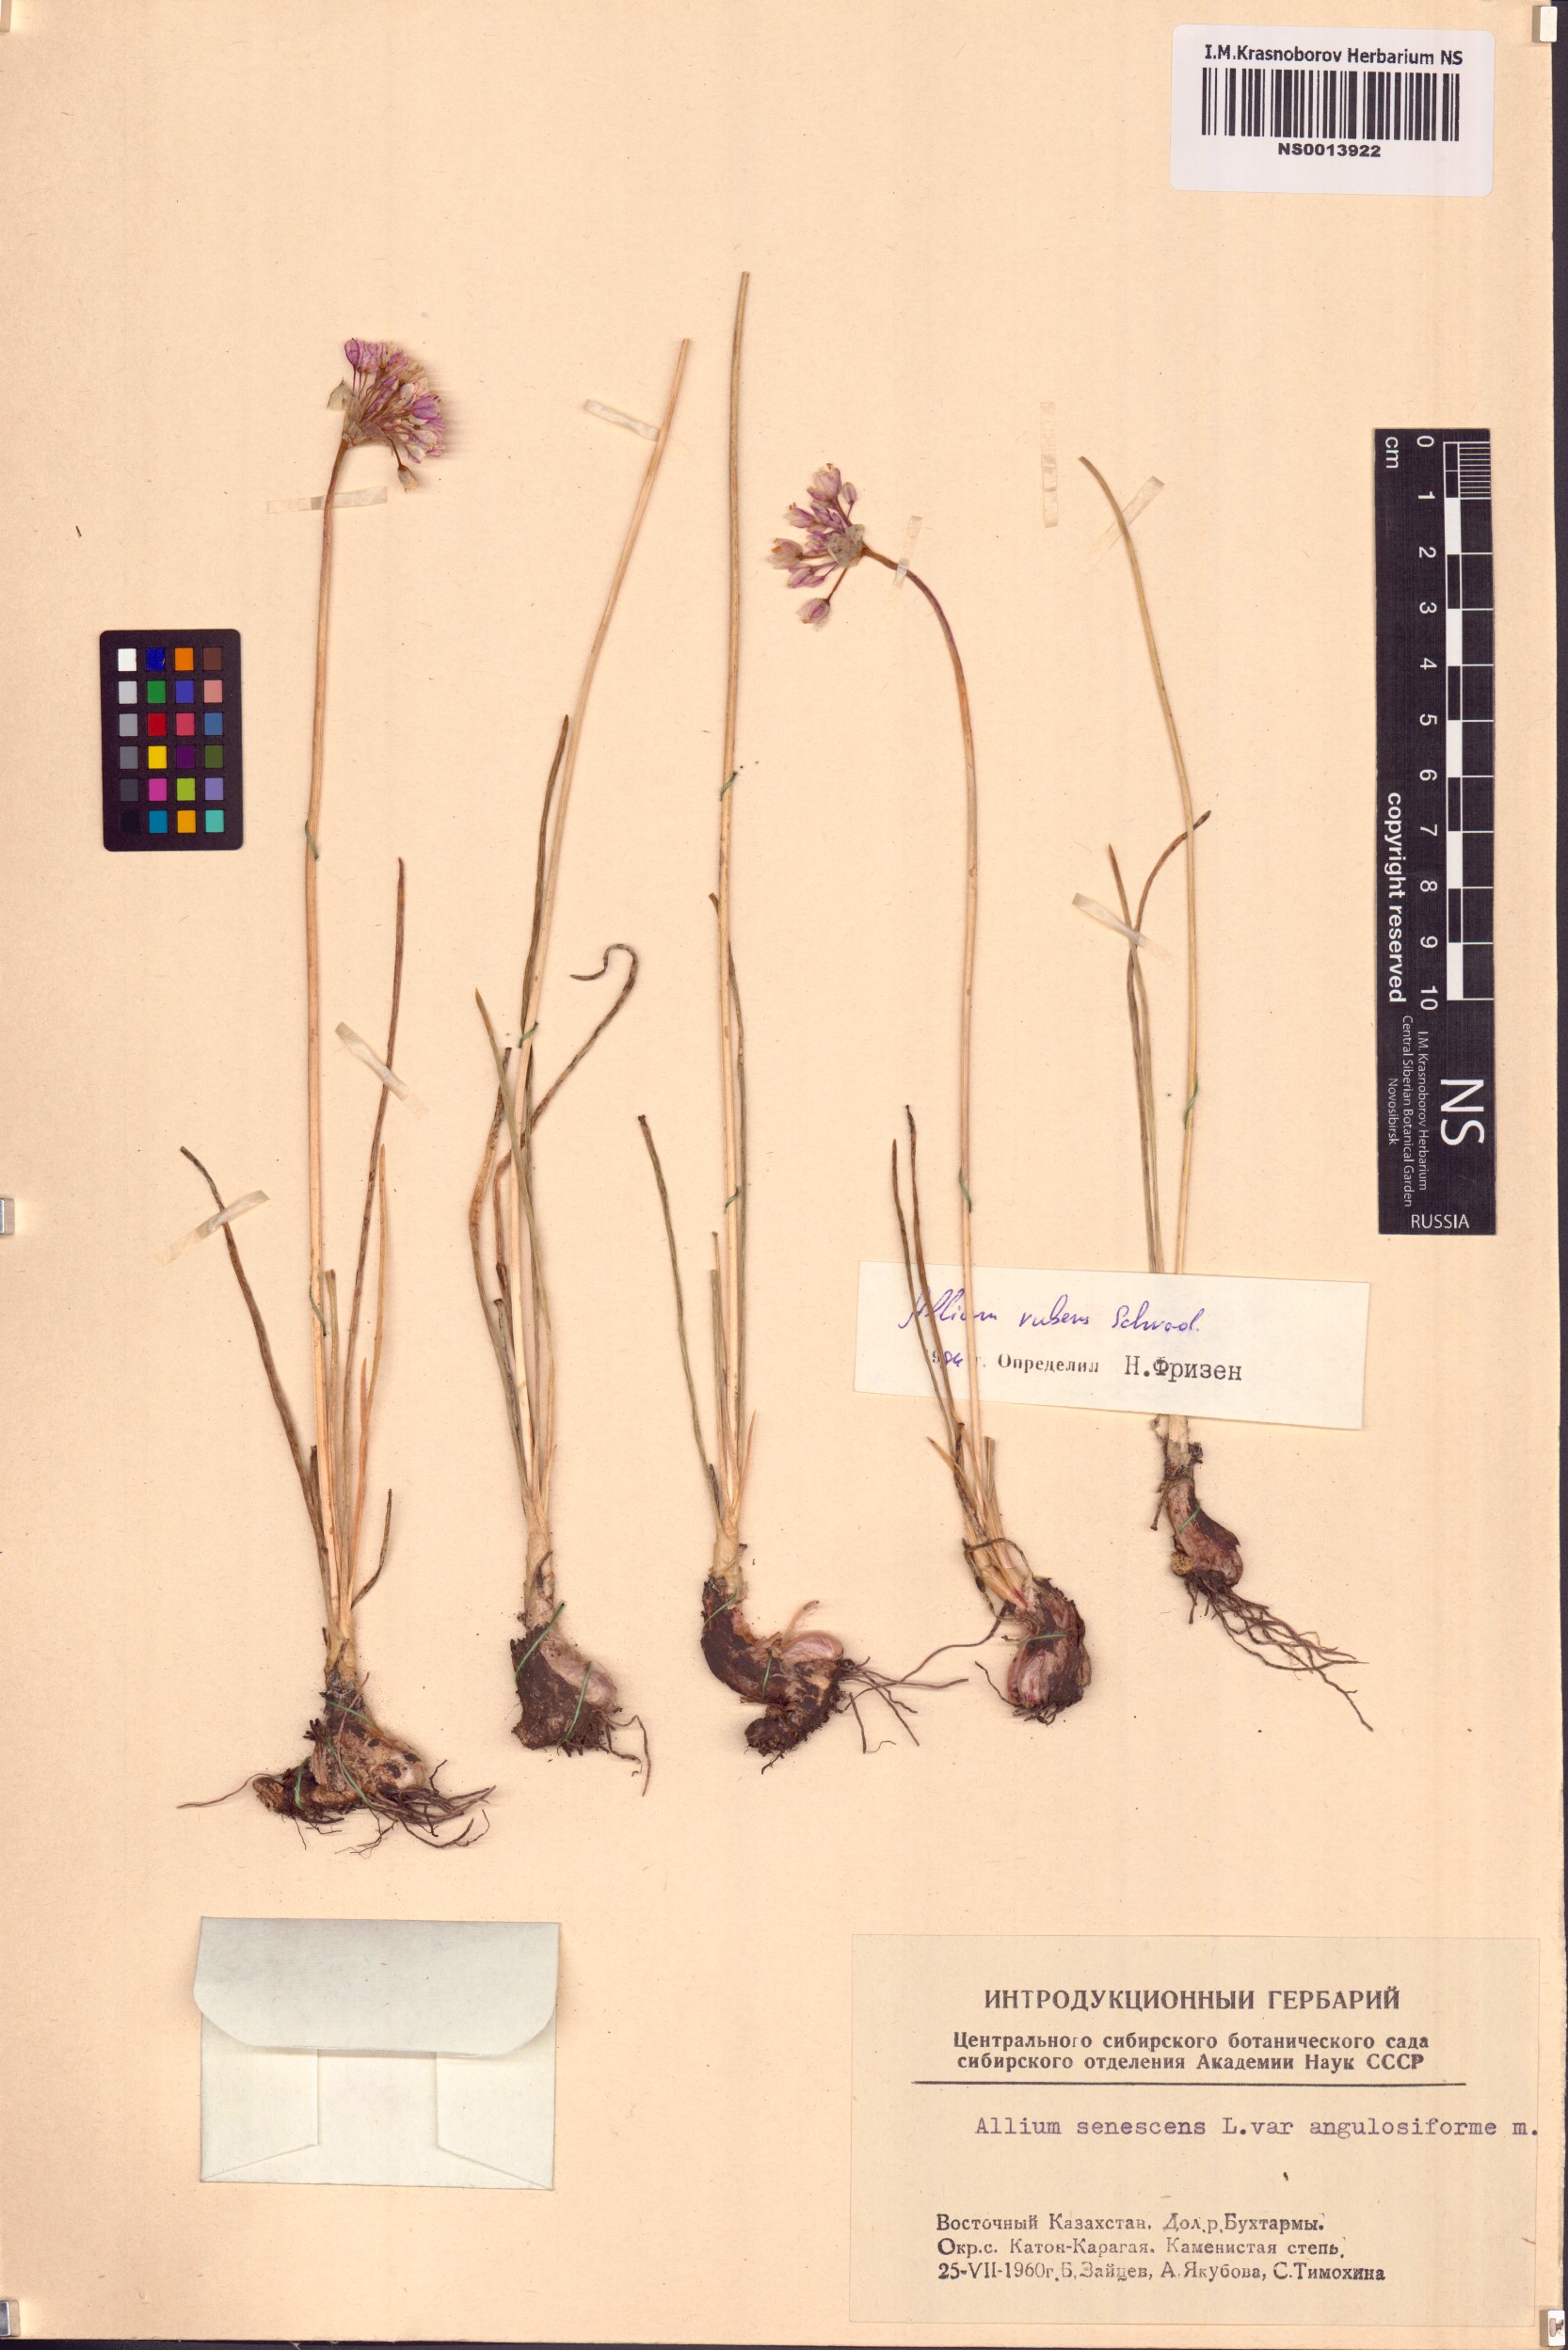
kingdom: Plantae
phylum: Tracheophyta
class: Liliopsida
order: Asparagales
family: Amaryllidaceae
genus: Allium
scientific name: Allium senescens
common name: German garlic
